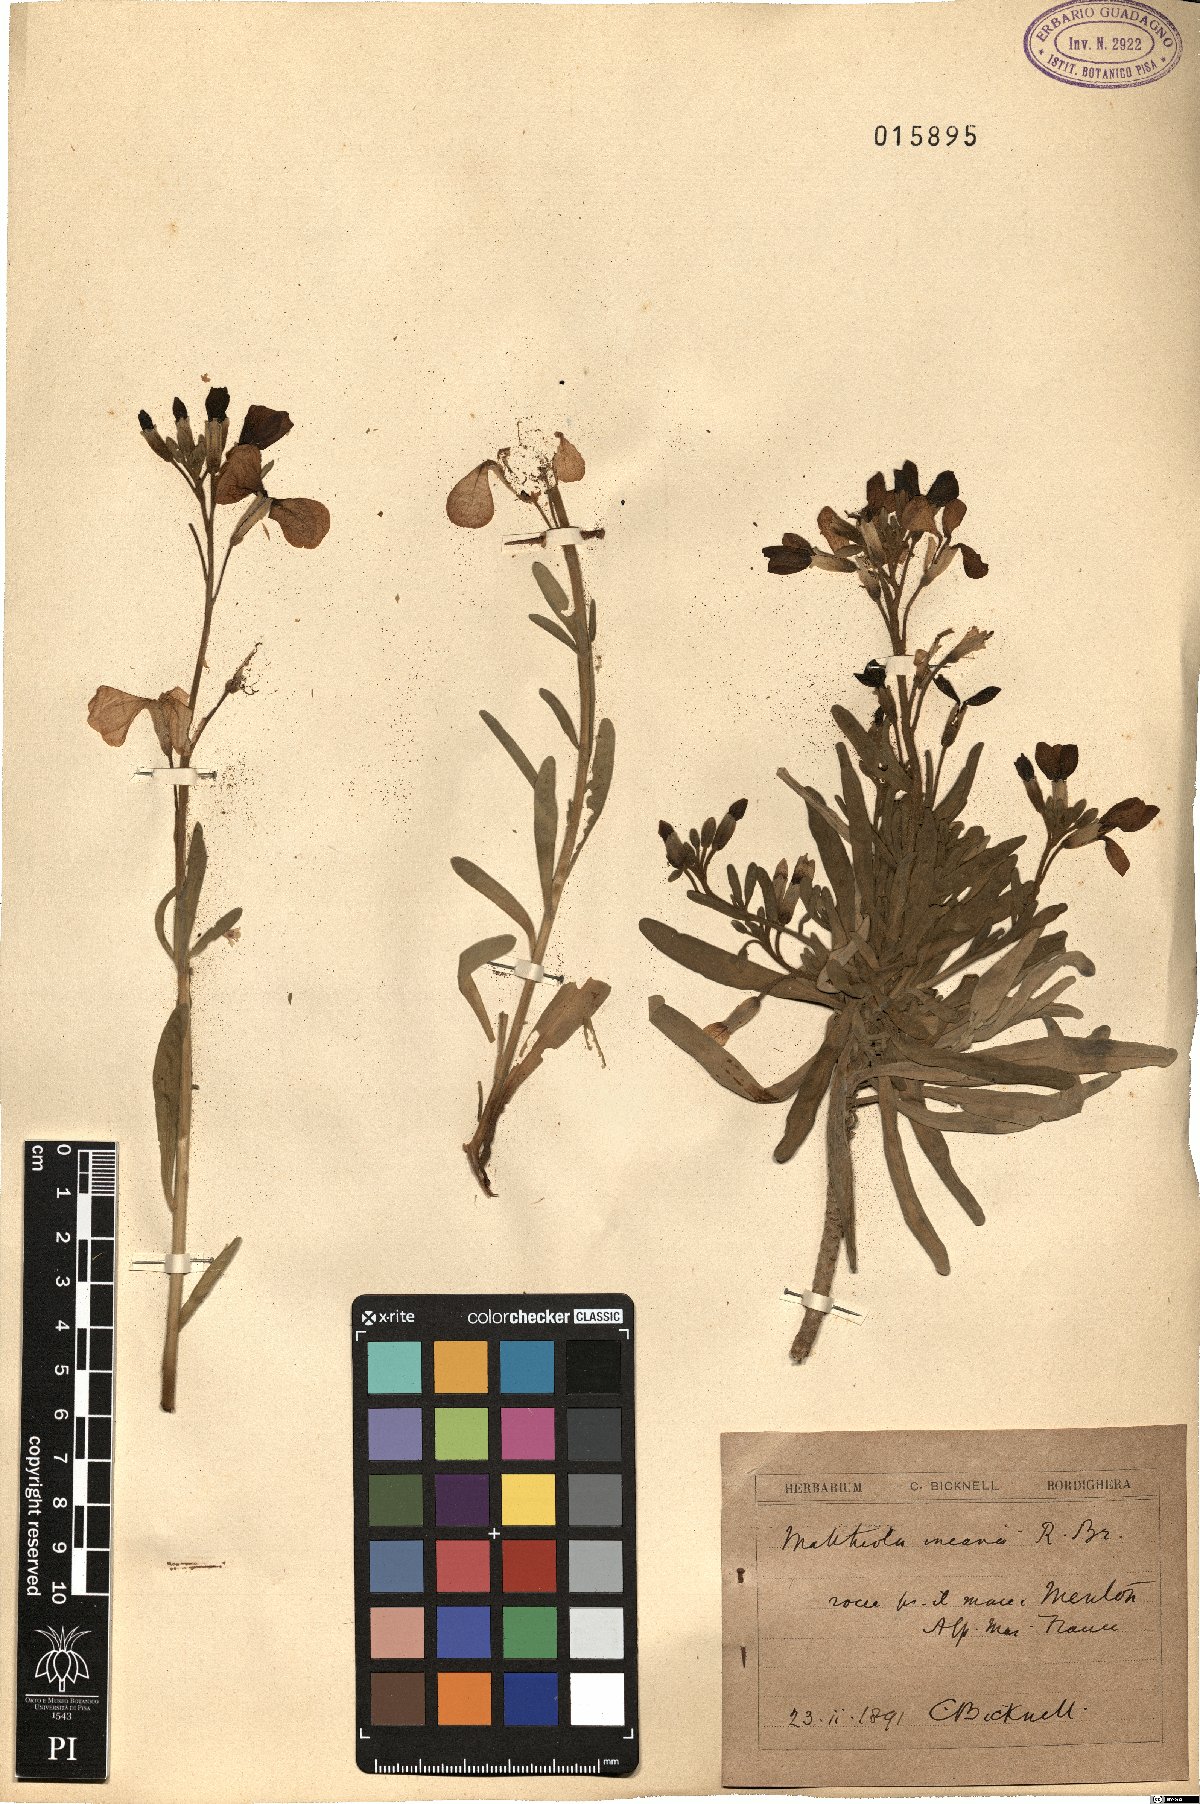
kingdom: Plantae
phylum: Tracheophyta
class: Magnoliopsida
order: Brassicales
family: Brassicaceae
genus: Matthiola
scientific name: Matthiola incana
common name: Hoary stock
